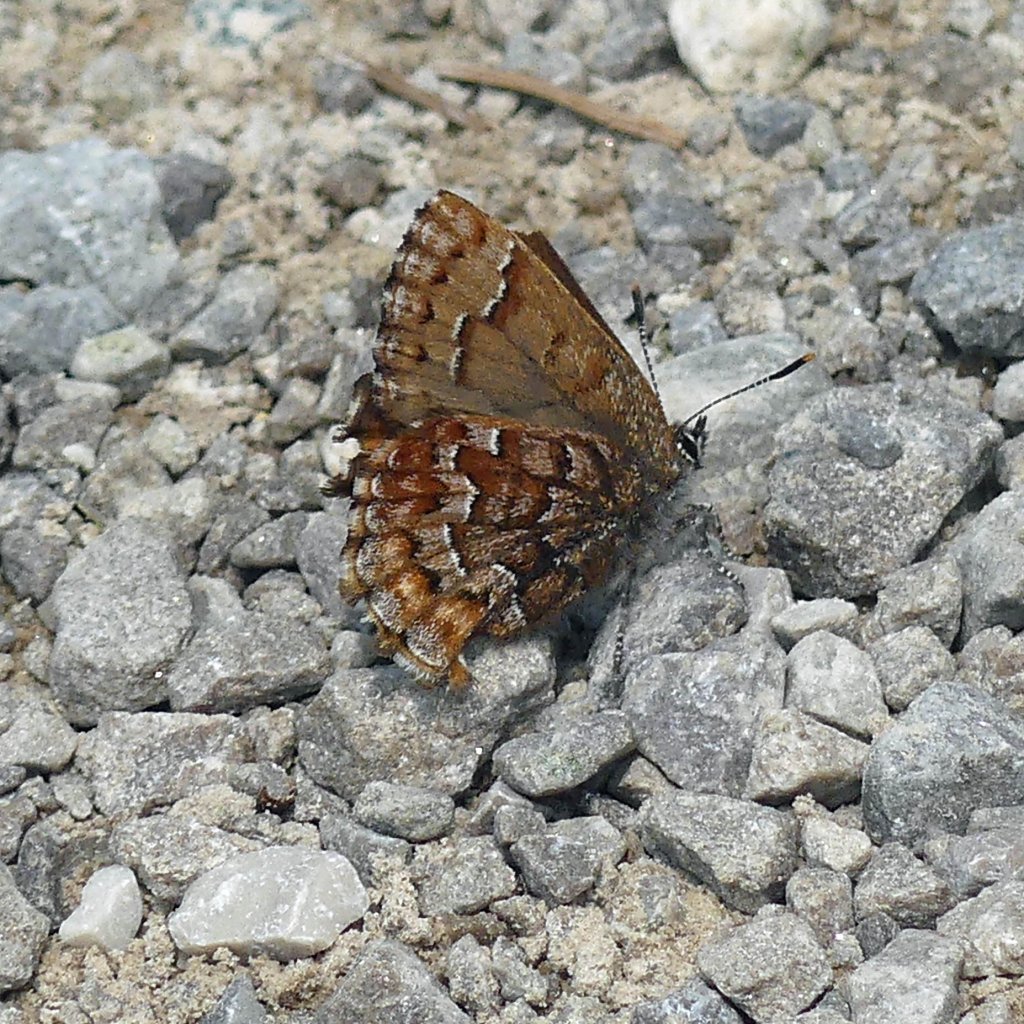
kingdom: Animalia
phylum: Arthropoda
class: Insecta
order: Lepidoptera
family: Lycaenidae
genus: Incisalia
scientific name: Incisalia niphon
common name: Eastern Pine Elfin
